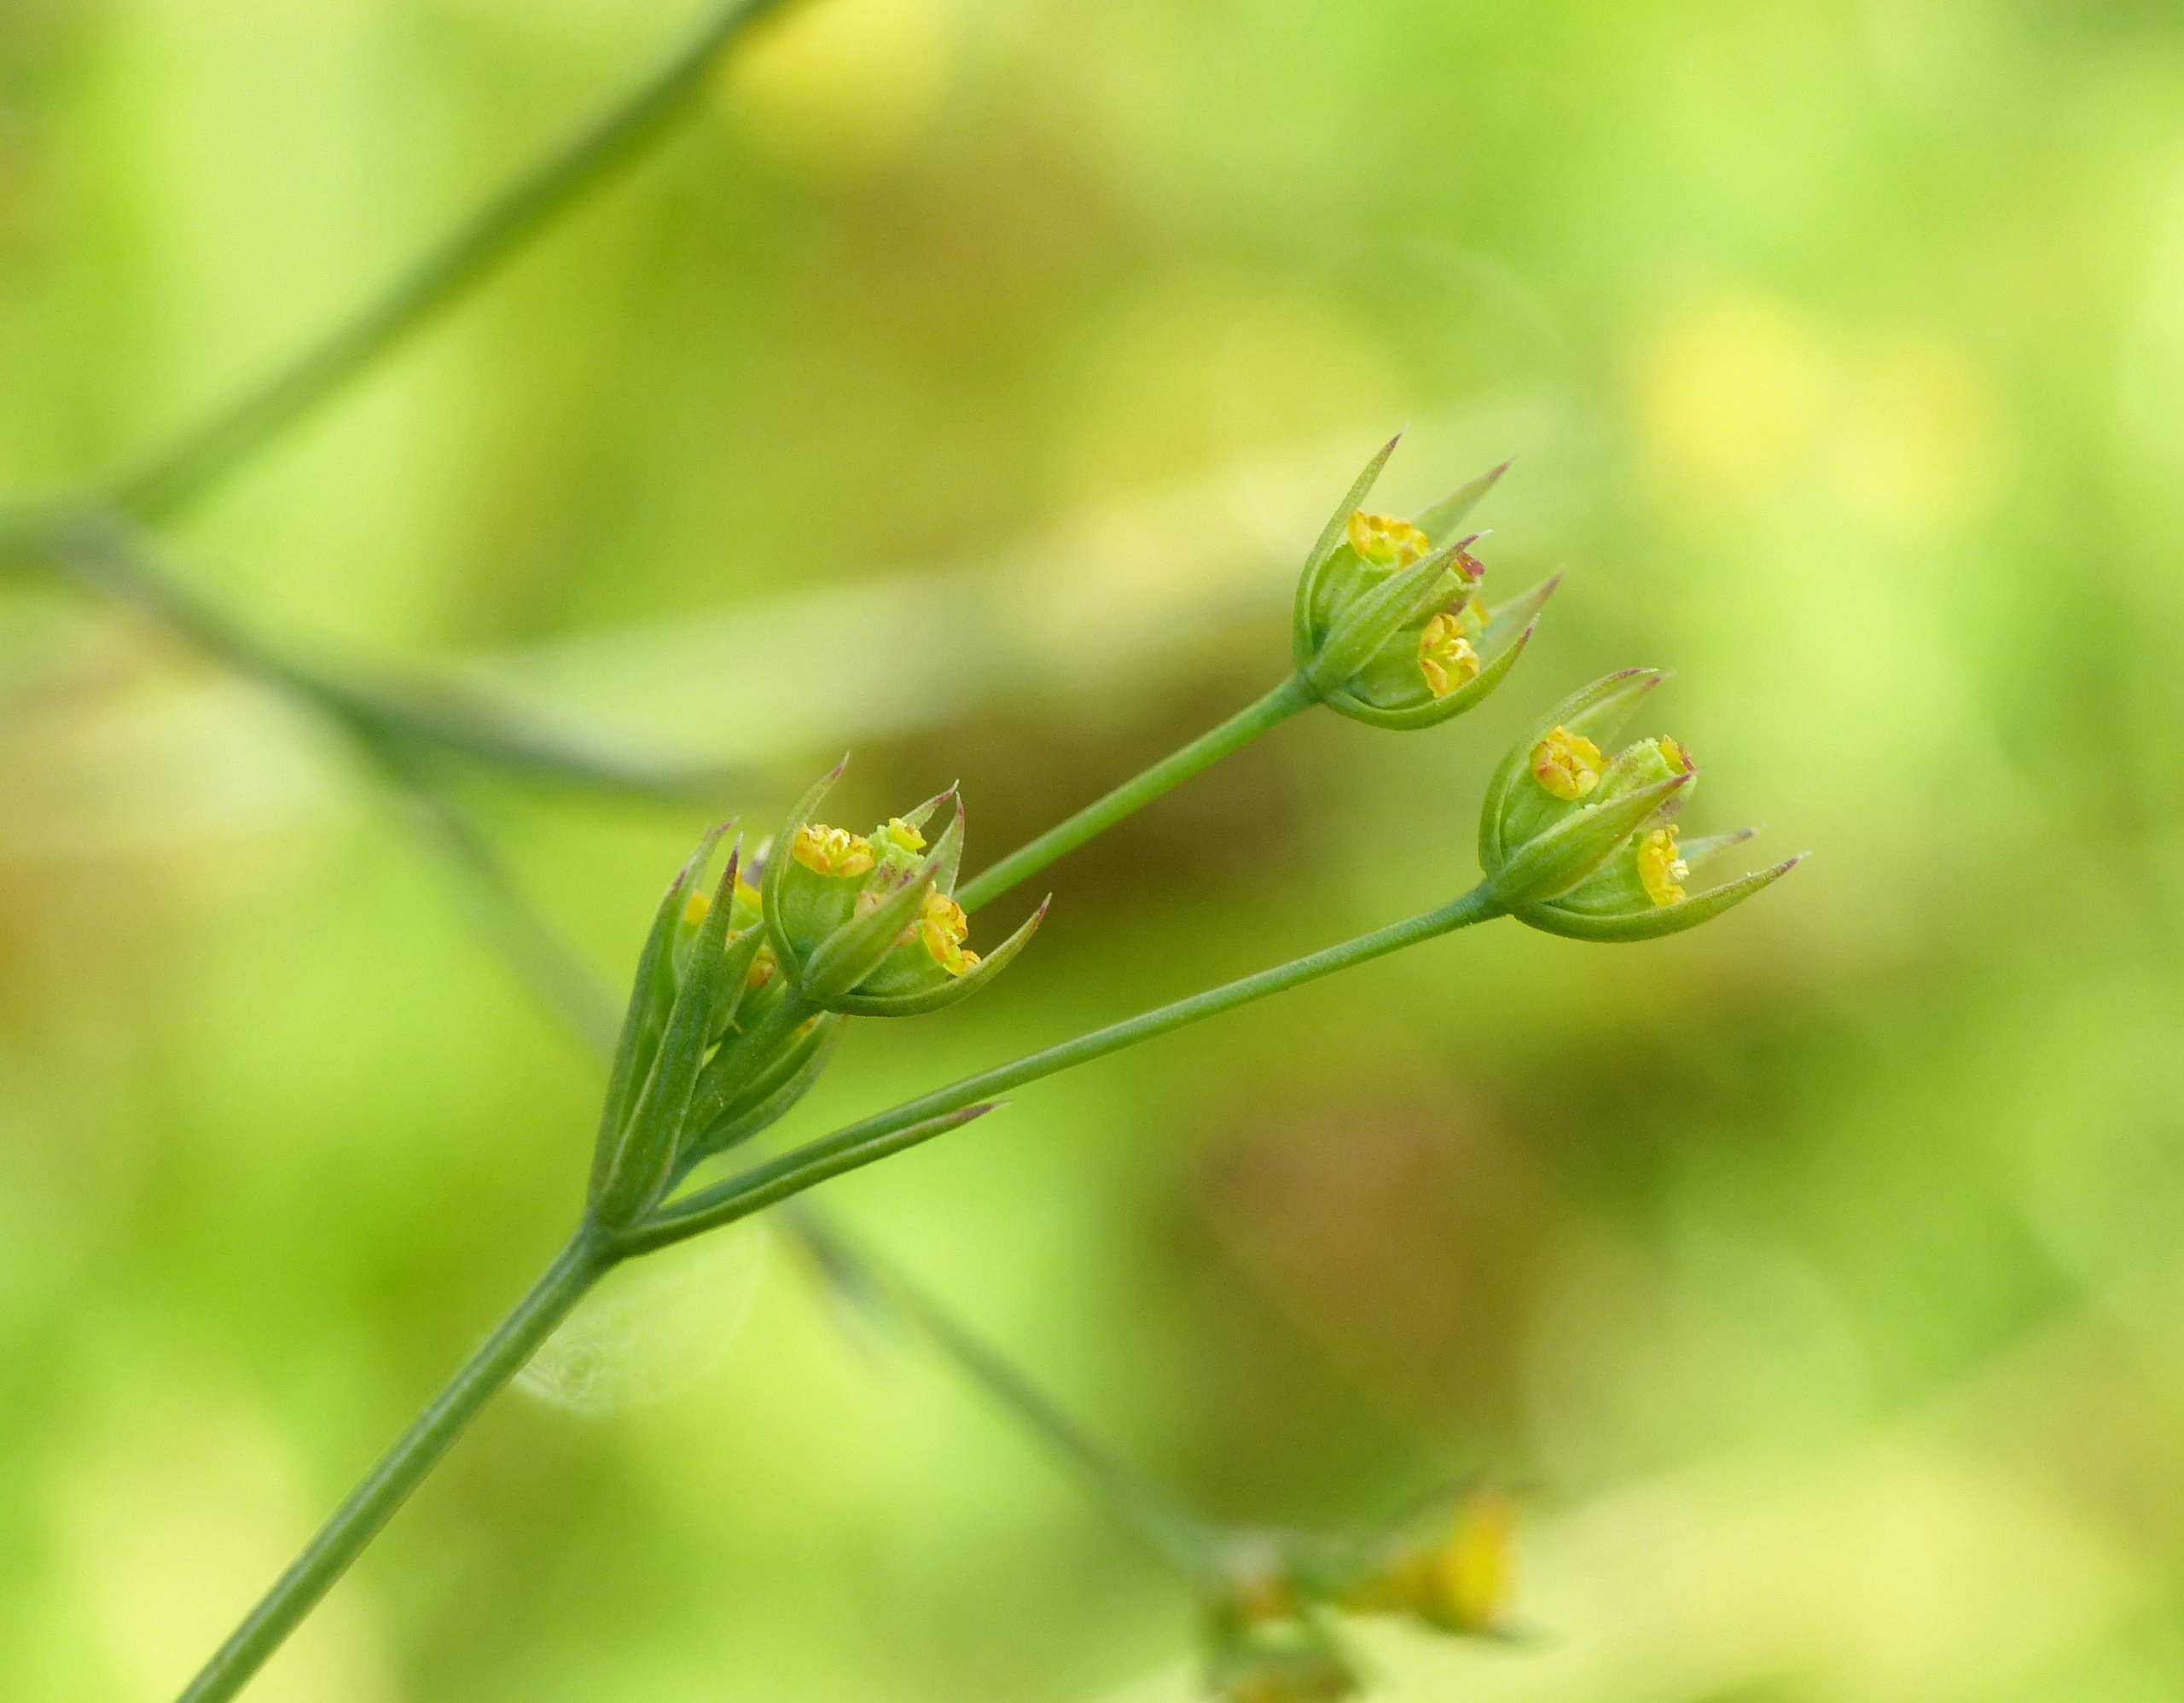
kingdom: Plantae
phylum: Tracheophyta
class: Magnoliopsida
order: Apiales
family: Apiaceae
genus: Bupleurum
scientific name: Bupleurum tenuissimum
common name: Smalbladet hareøre
